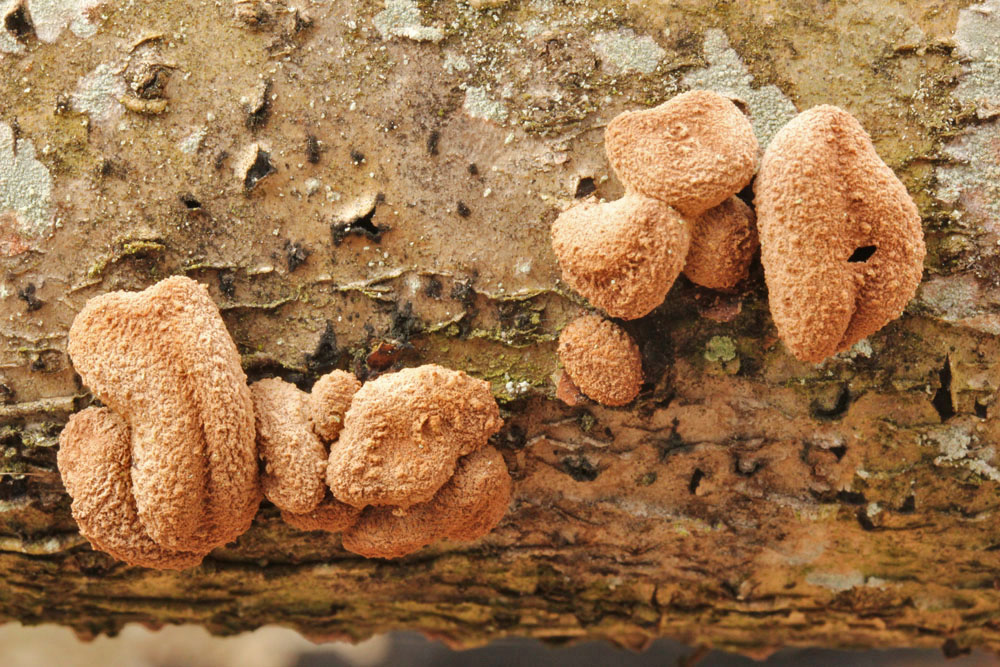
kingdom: Fungi
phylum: Ascomycota
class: Leotiomycetes
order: Helotiales
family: Cenangiaceae
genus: Encoelia
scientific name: Encoelia furfuracea
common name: hassel-læderskive
